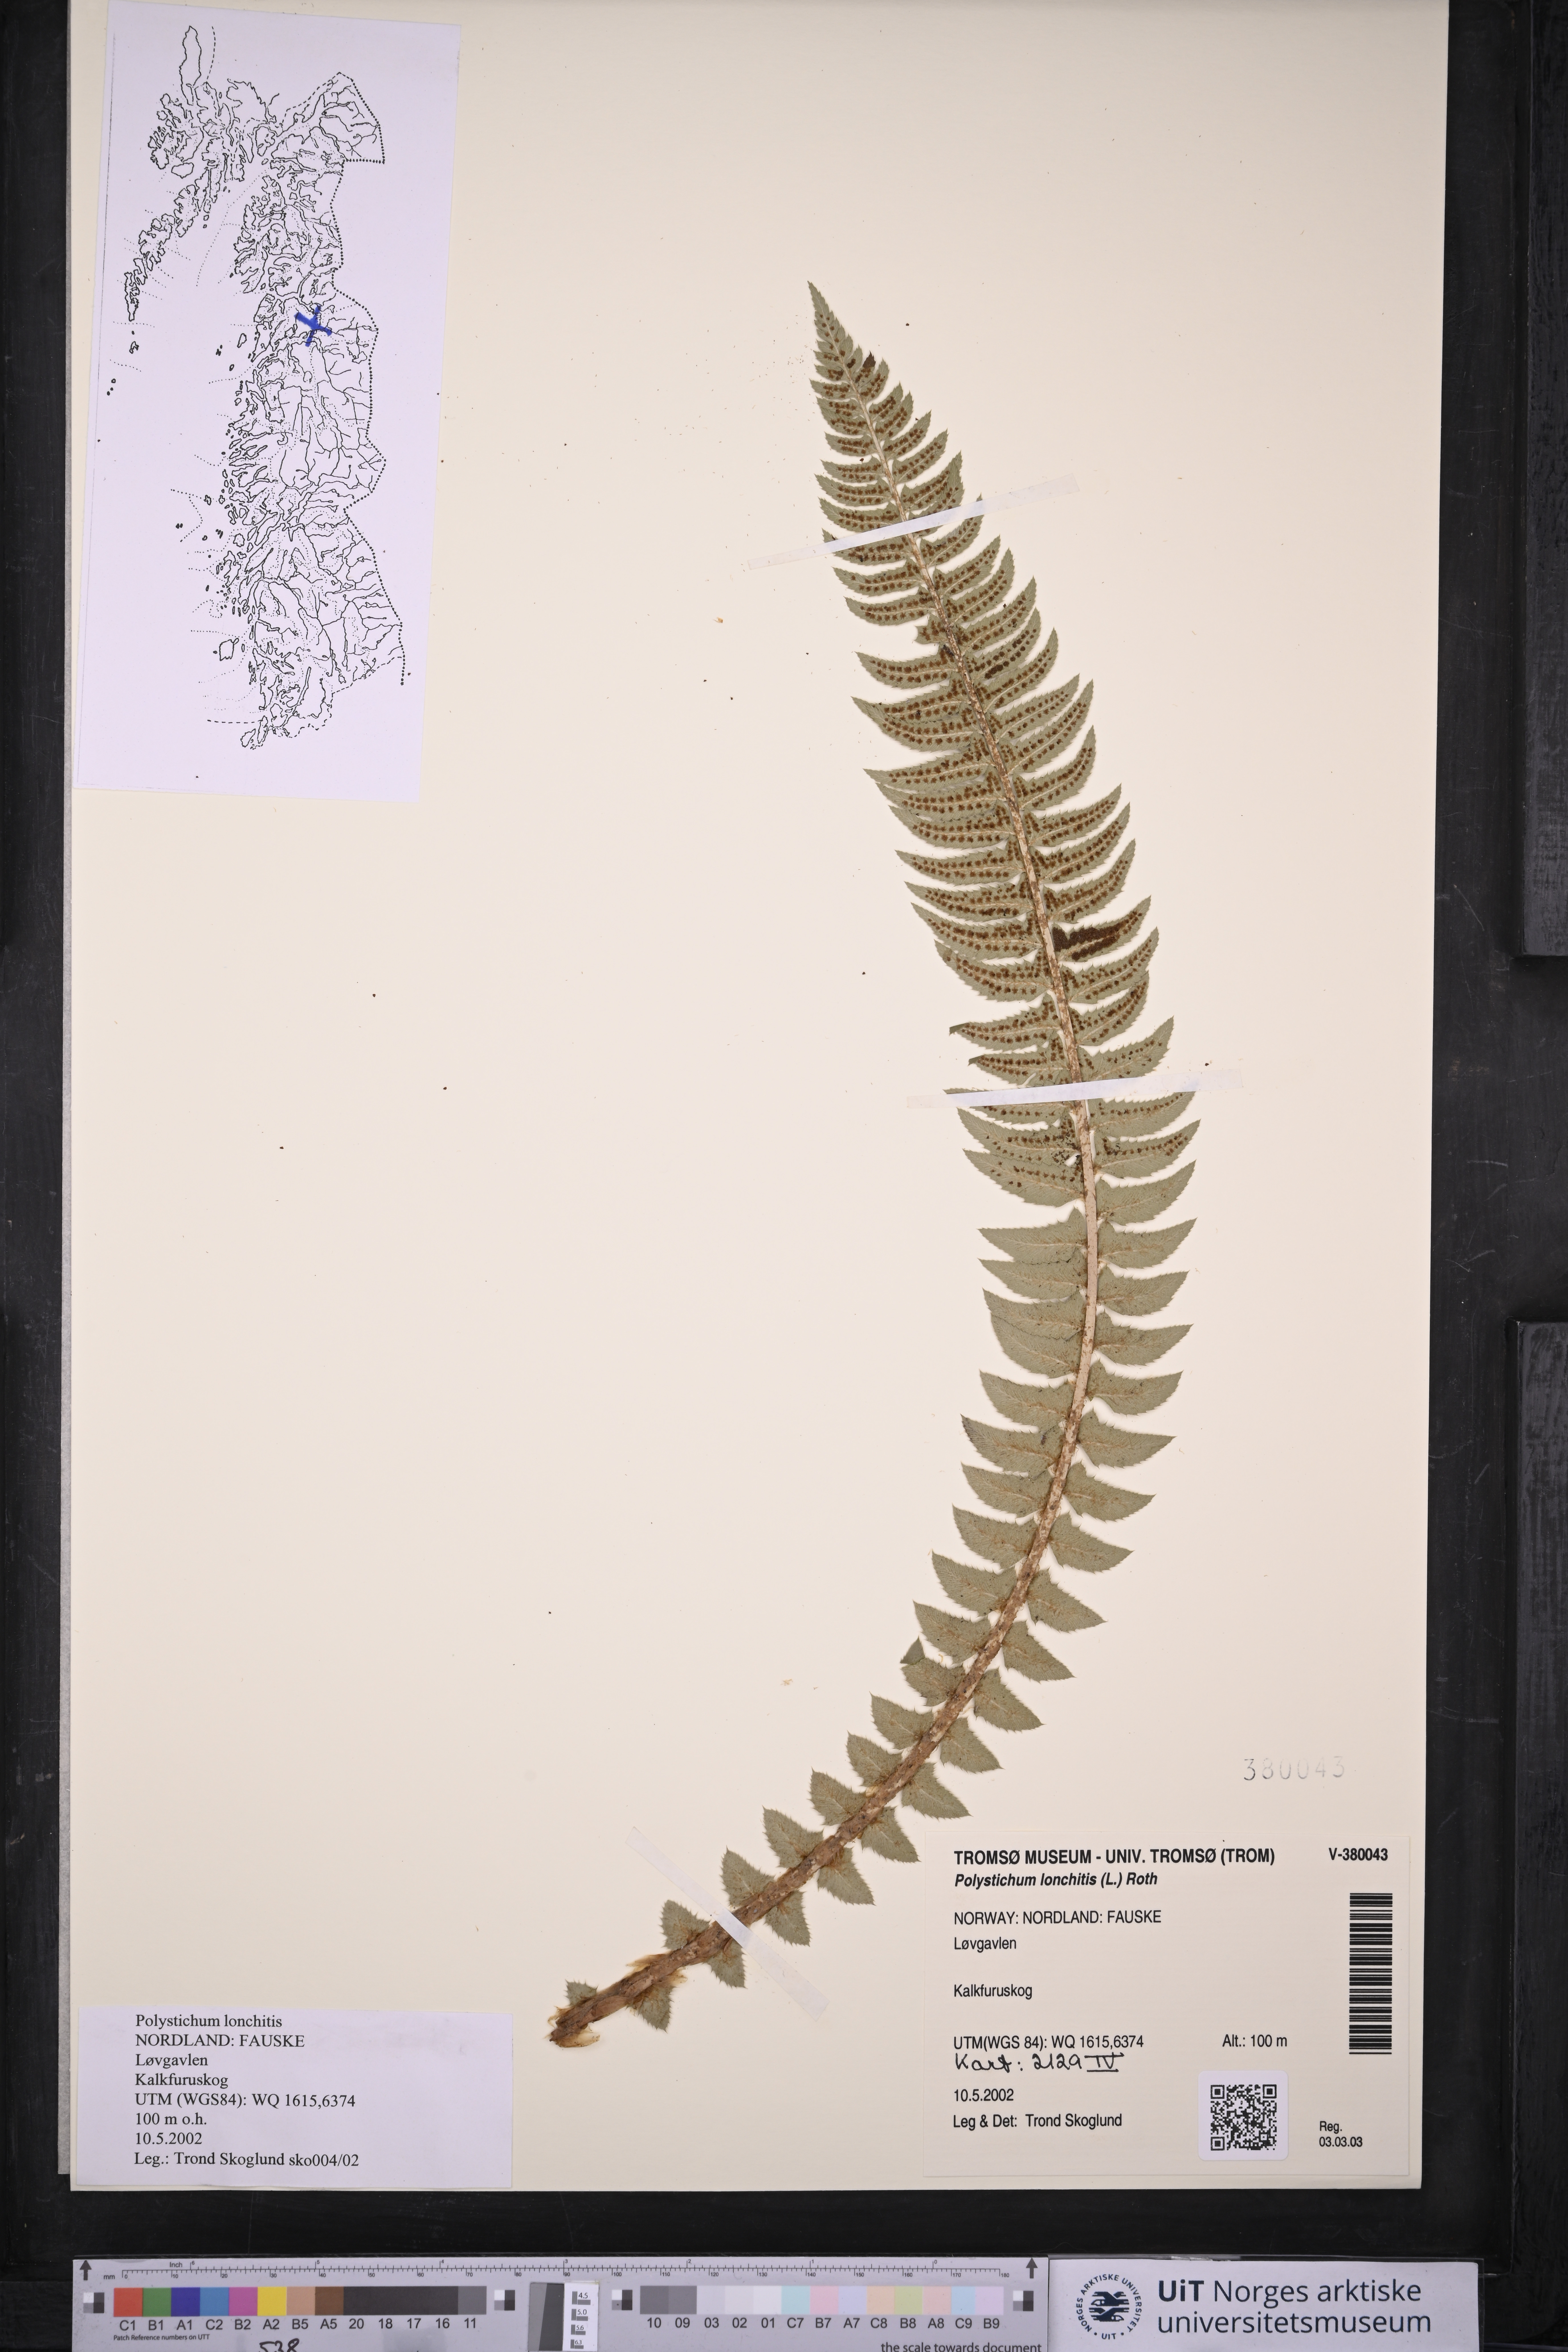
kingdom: Plantae
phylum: Tracheophyta
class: Polypodiopsida
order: Polypodiales
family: Dryopteridaceae
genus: Polystichum
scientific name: Polystichum lonchitis
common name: Holly fern
